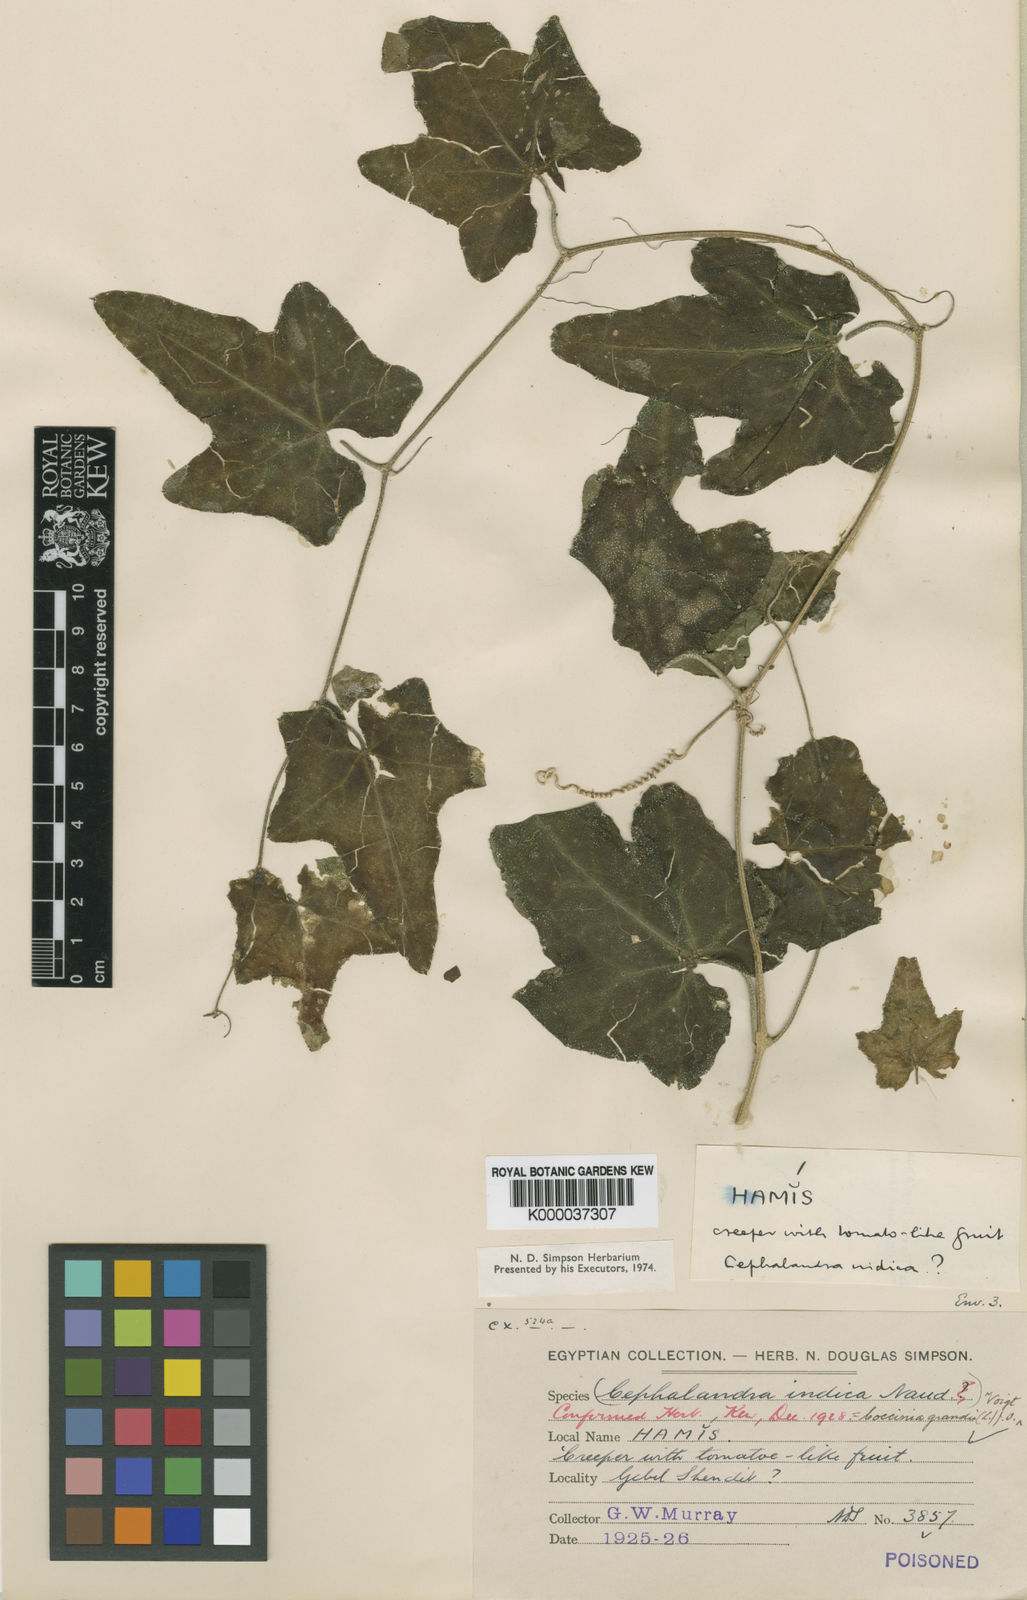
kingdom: Plantae
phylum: Tracheophyta
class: Magnoliopsida
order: Cucurbitales
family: Cucurbitaceae
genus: Coccinia
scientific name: Coccinia grandis
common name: Ivy gourd
